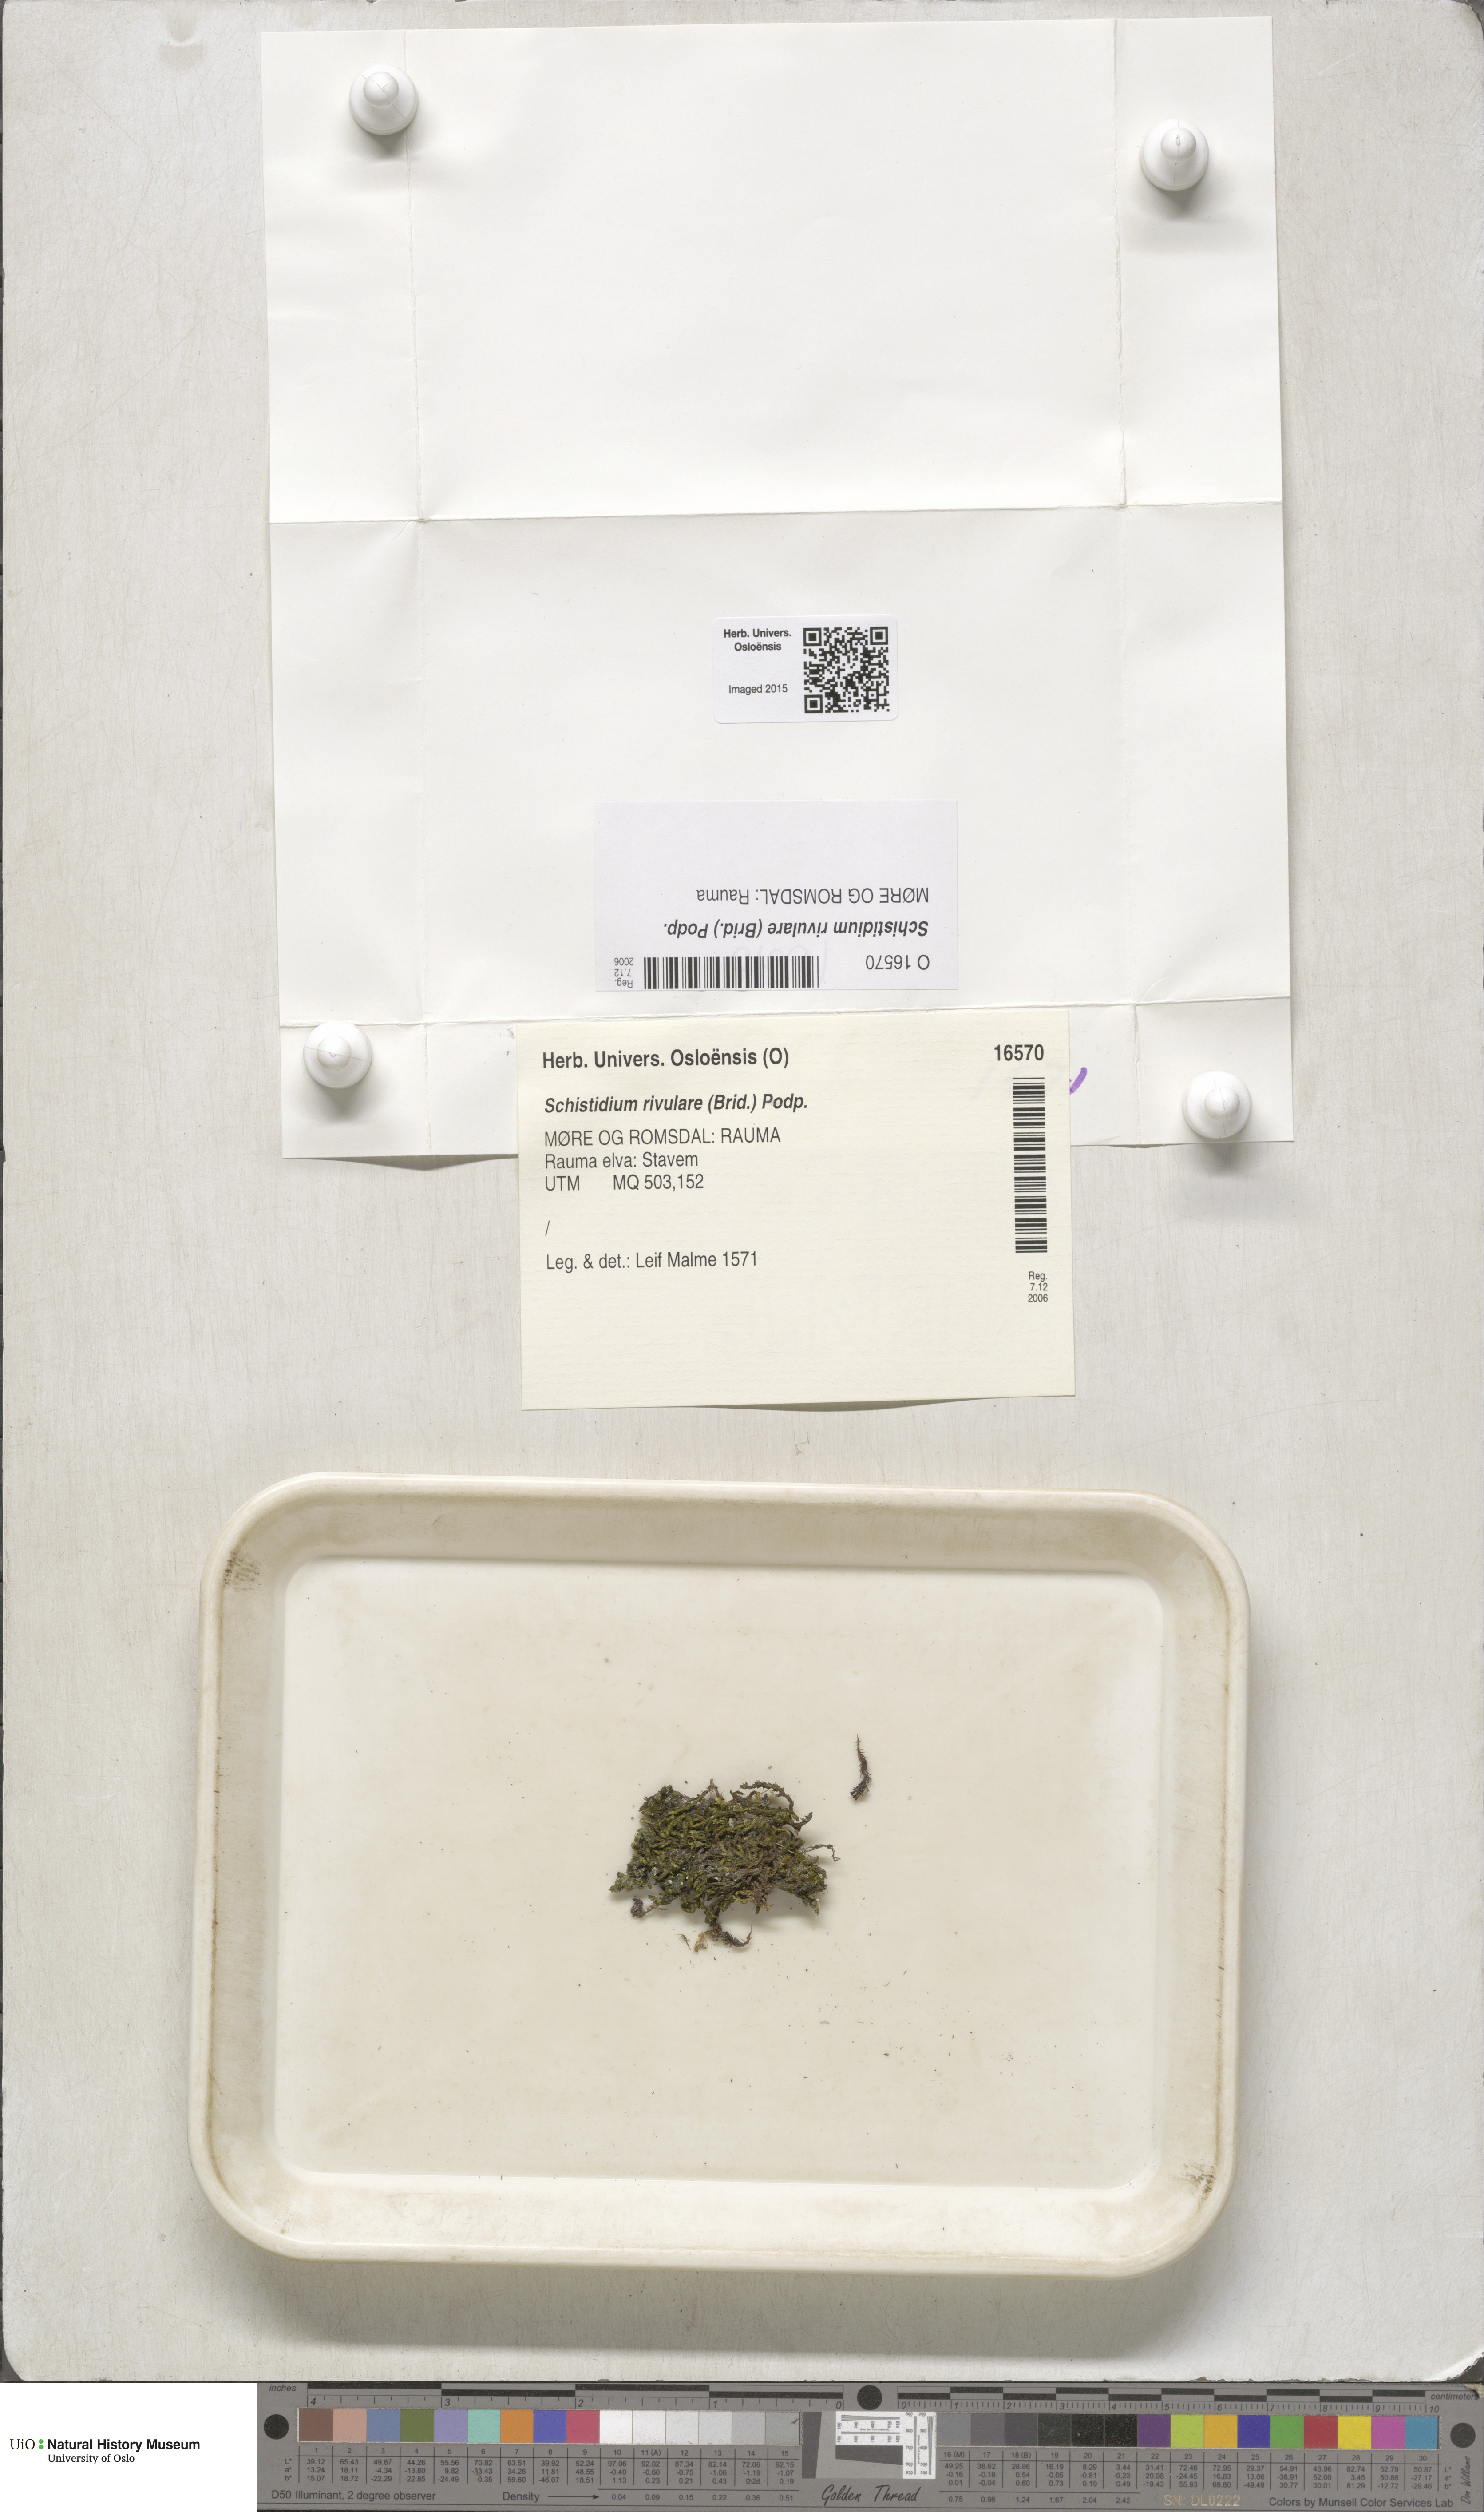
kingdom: Plantae
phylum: Bryophyta
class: Bryopsida
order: Grimmiales
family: Grimmiaceae
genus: Schistidium
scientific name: Schistidium rivulare
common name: River bloom moss
